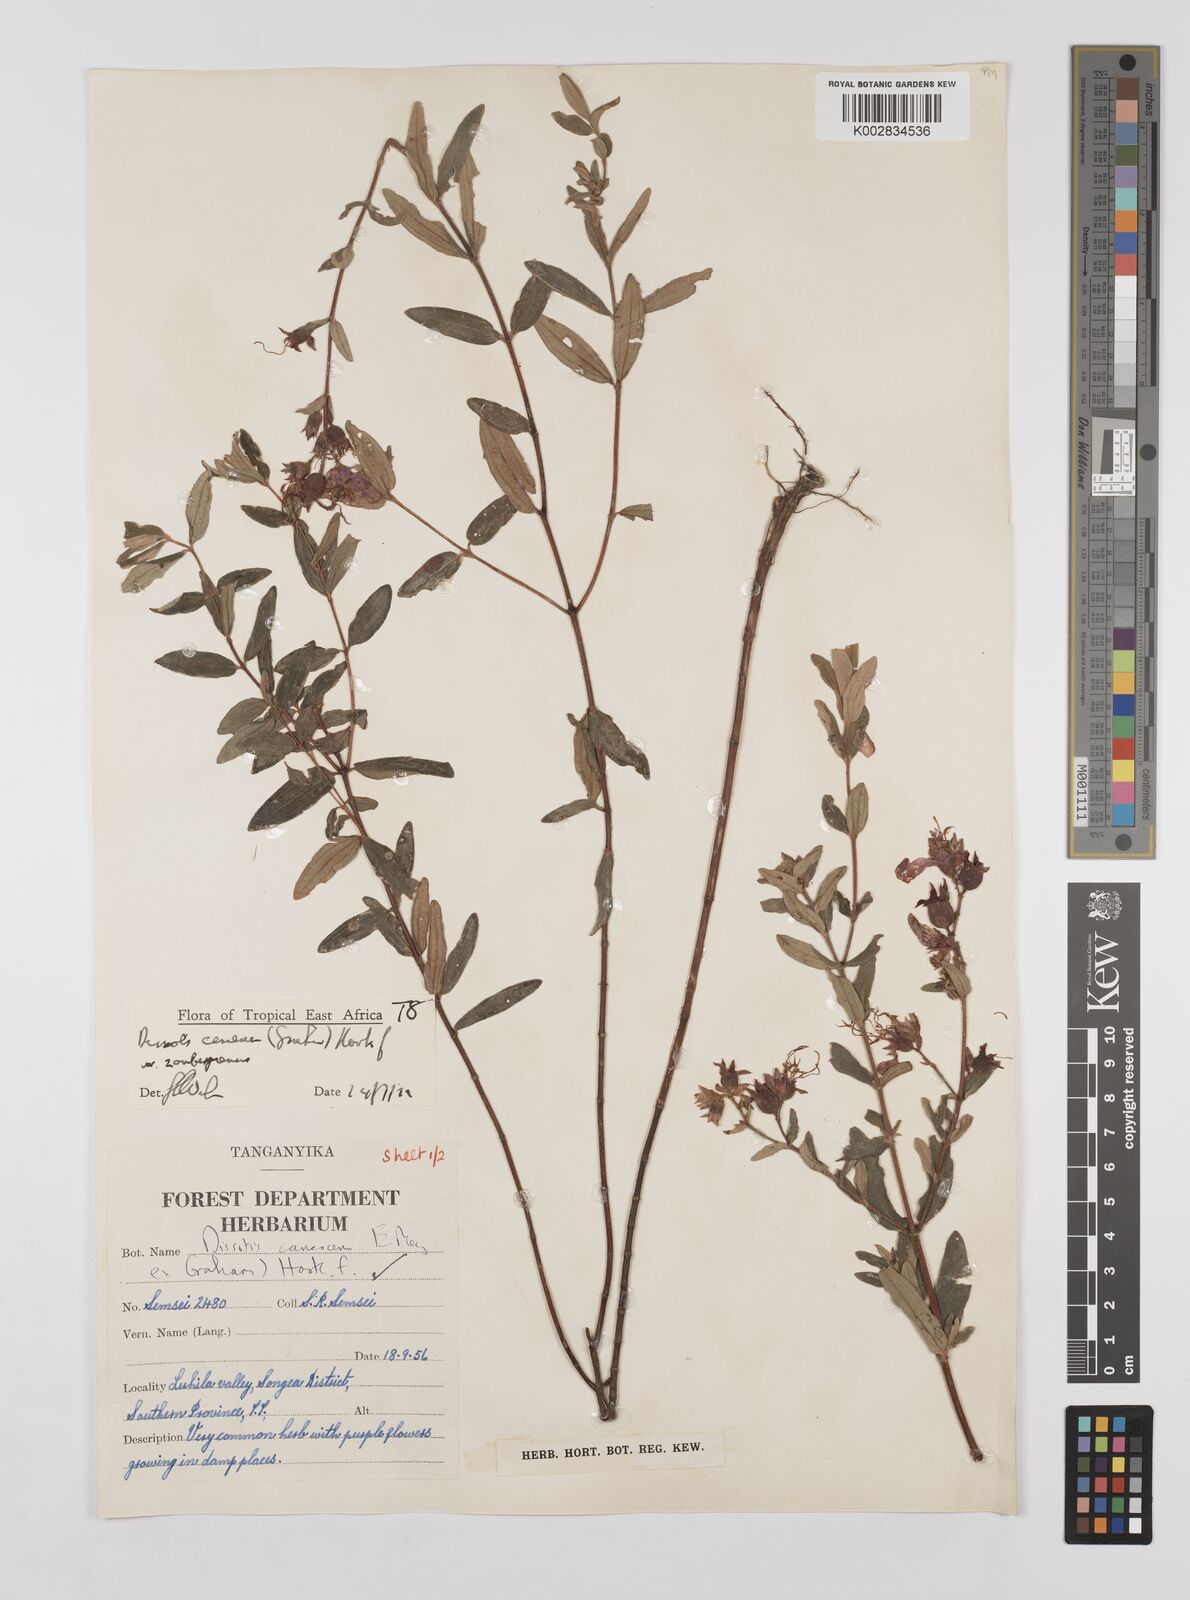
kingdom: Plantae
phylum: Tracheophyta
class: Magnoliopsida
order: Myrtales
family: Melastomataceae
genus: Argyrella
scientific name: Argyrella canescens
